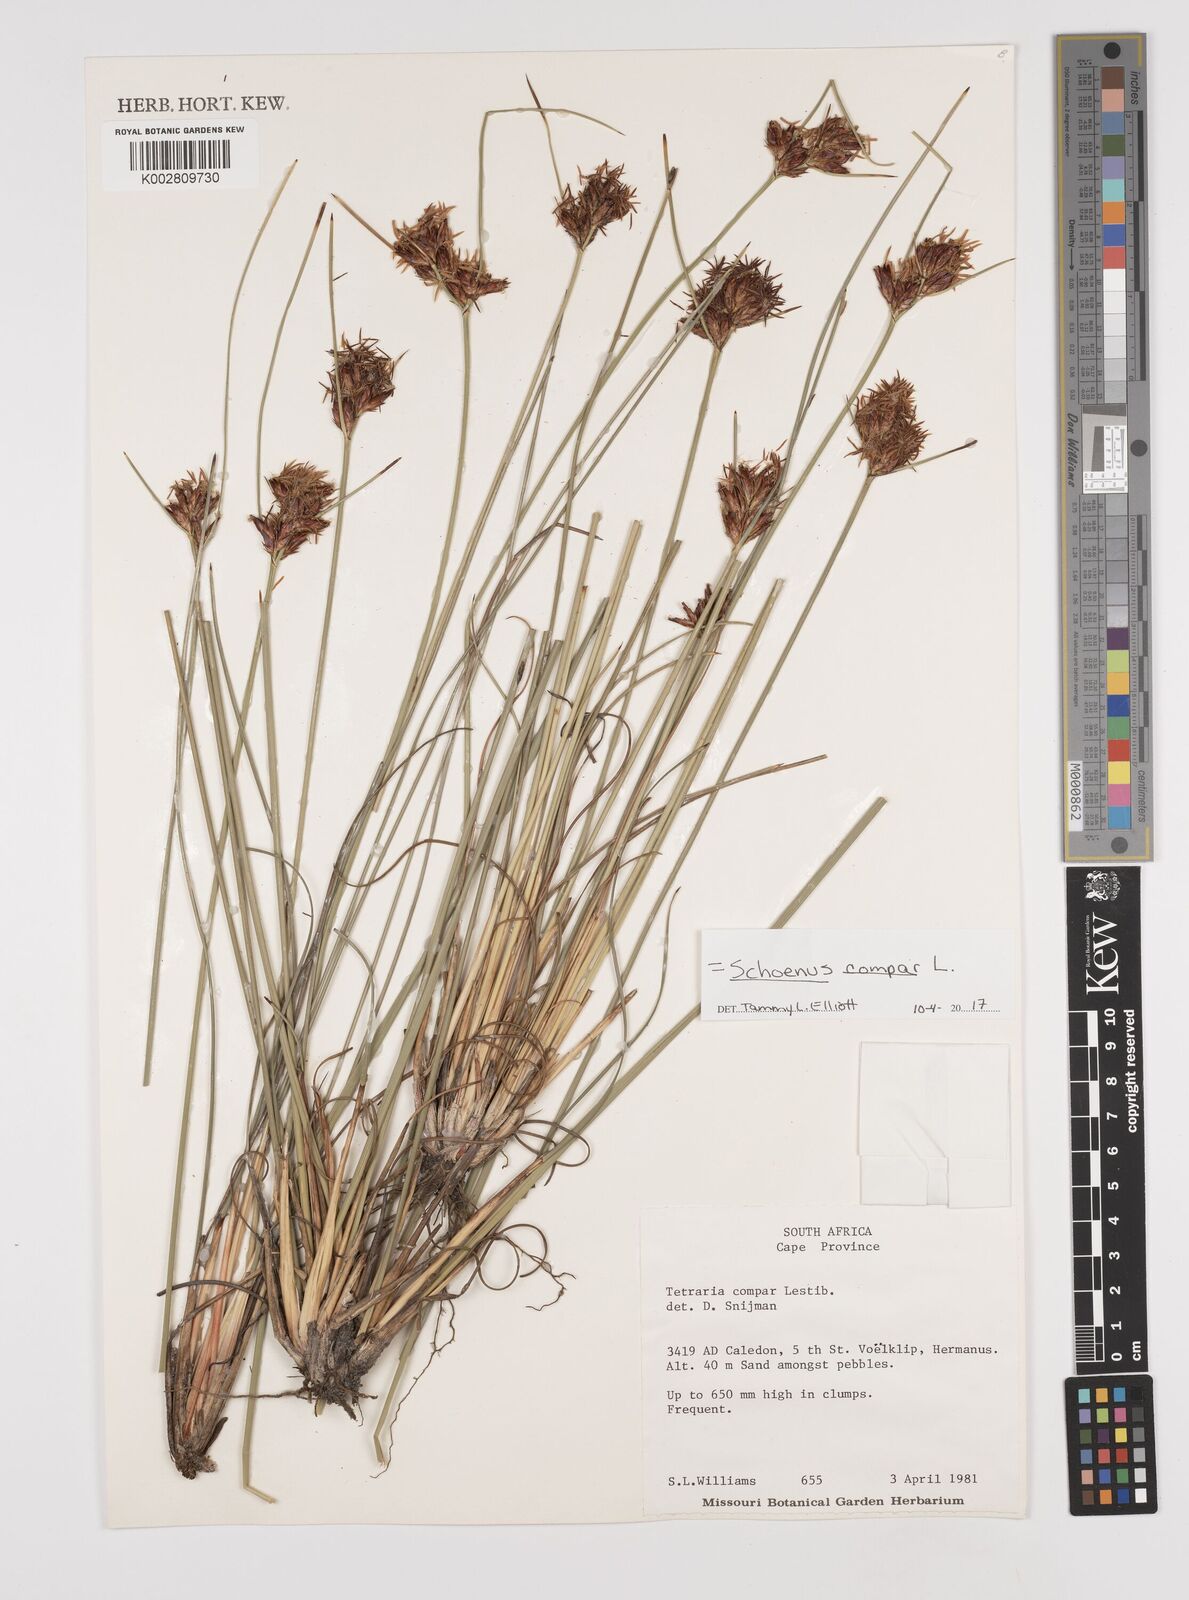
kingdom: Plantae
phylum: Tracheophyta
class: Liliopsida
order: Poales
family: Cyperaceae
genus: Schoenus
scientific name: Schoenus compar
